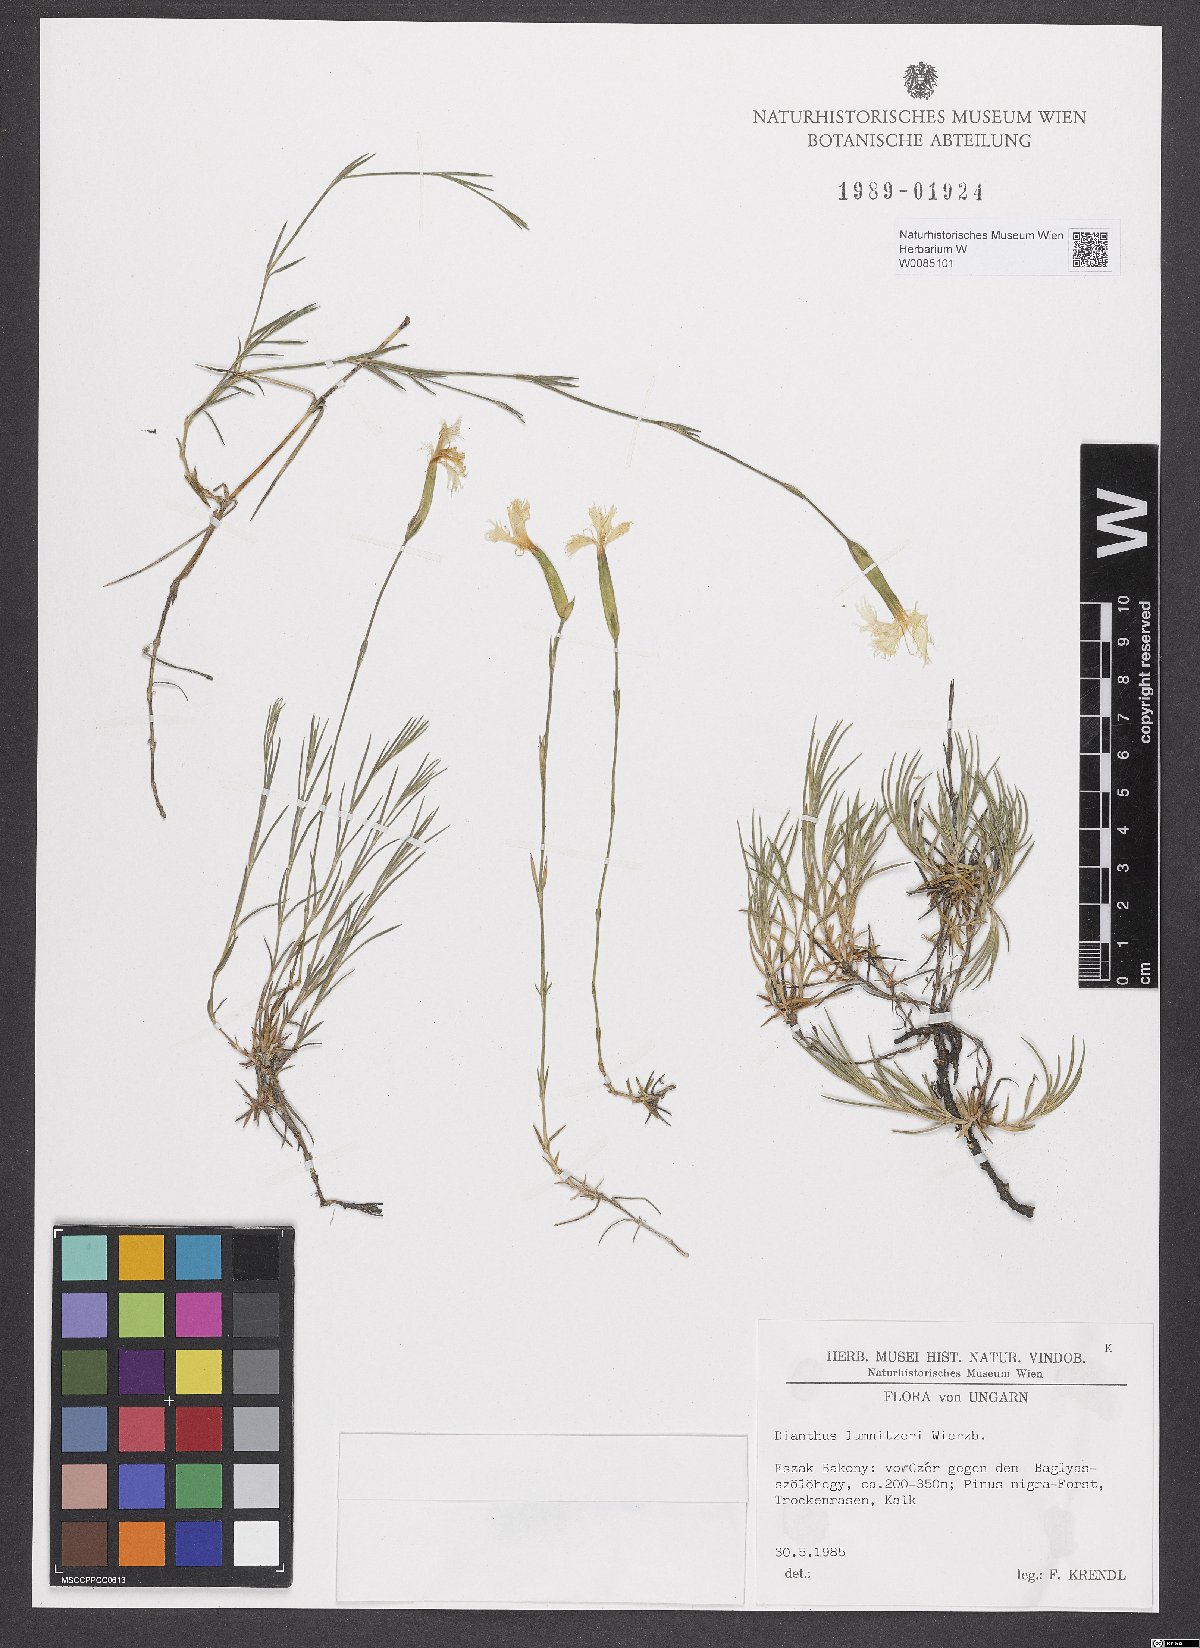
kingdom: Plantae
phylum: Tracheophyta
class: Magnoliopsida
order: Caryophyllales
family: Caryophyllaceae
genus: Dianthus
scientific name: Dianthus praecox
